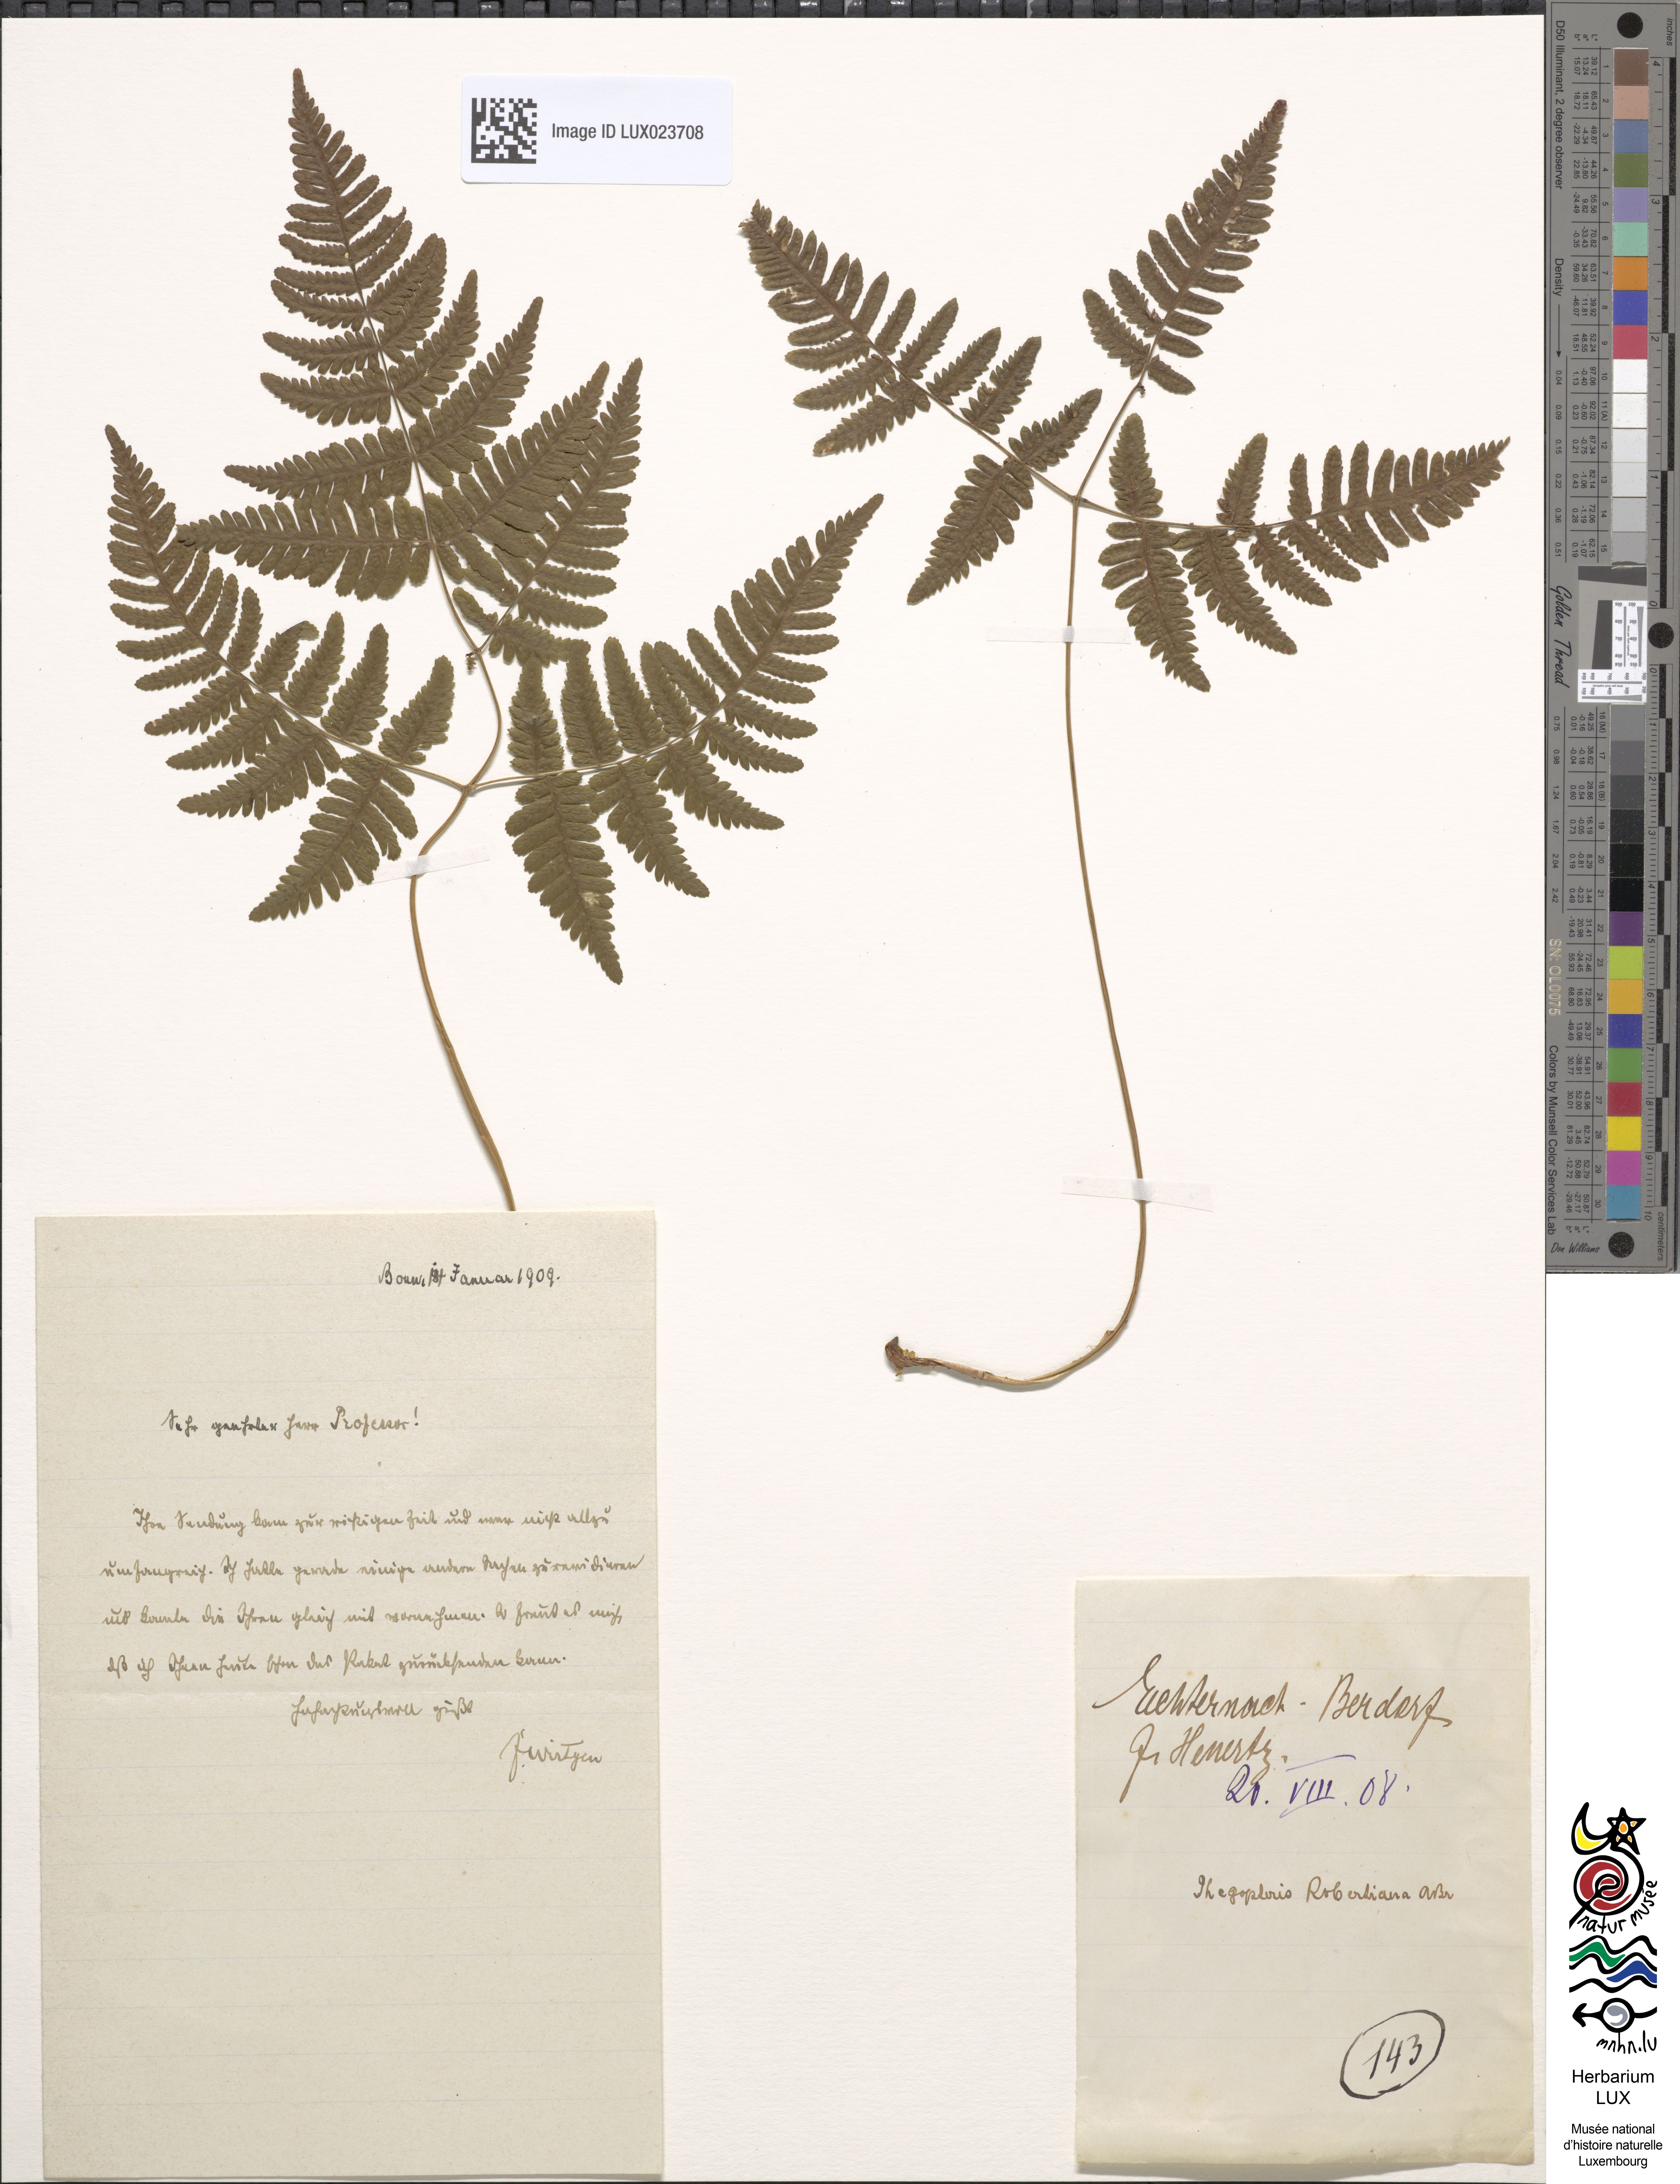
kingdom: Plantae
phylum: Tracheophyta
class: Polypodiopsida
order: Polypodiales
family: Cystopteridaceae
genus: Gymnocarpium
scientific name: Gymnocarpium robertianum
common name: Limestone fern
